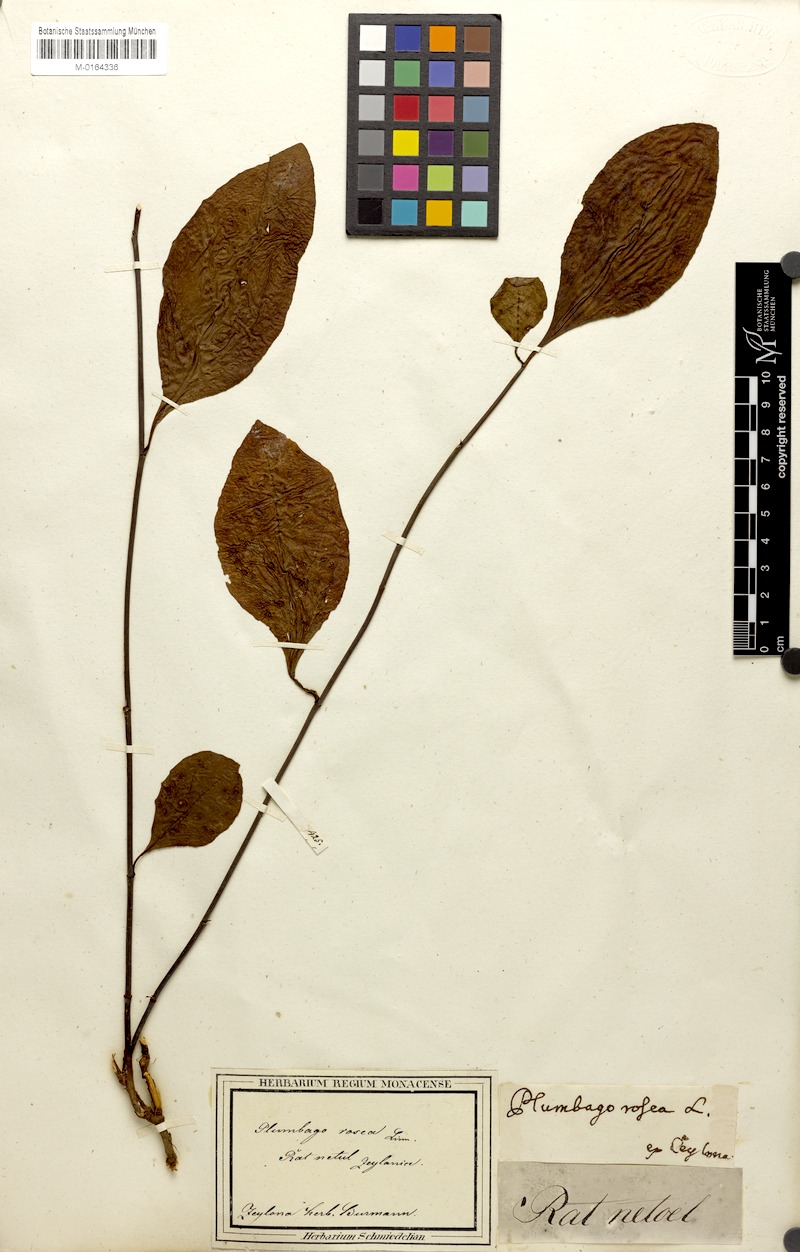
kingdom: Plantae
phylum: Tracheophyta
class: Magnoliopsida
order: Caryophyllales
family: Plumbaginaceae
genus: Plumbago
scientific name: Plumbago indica
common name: Indian leadwort
